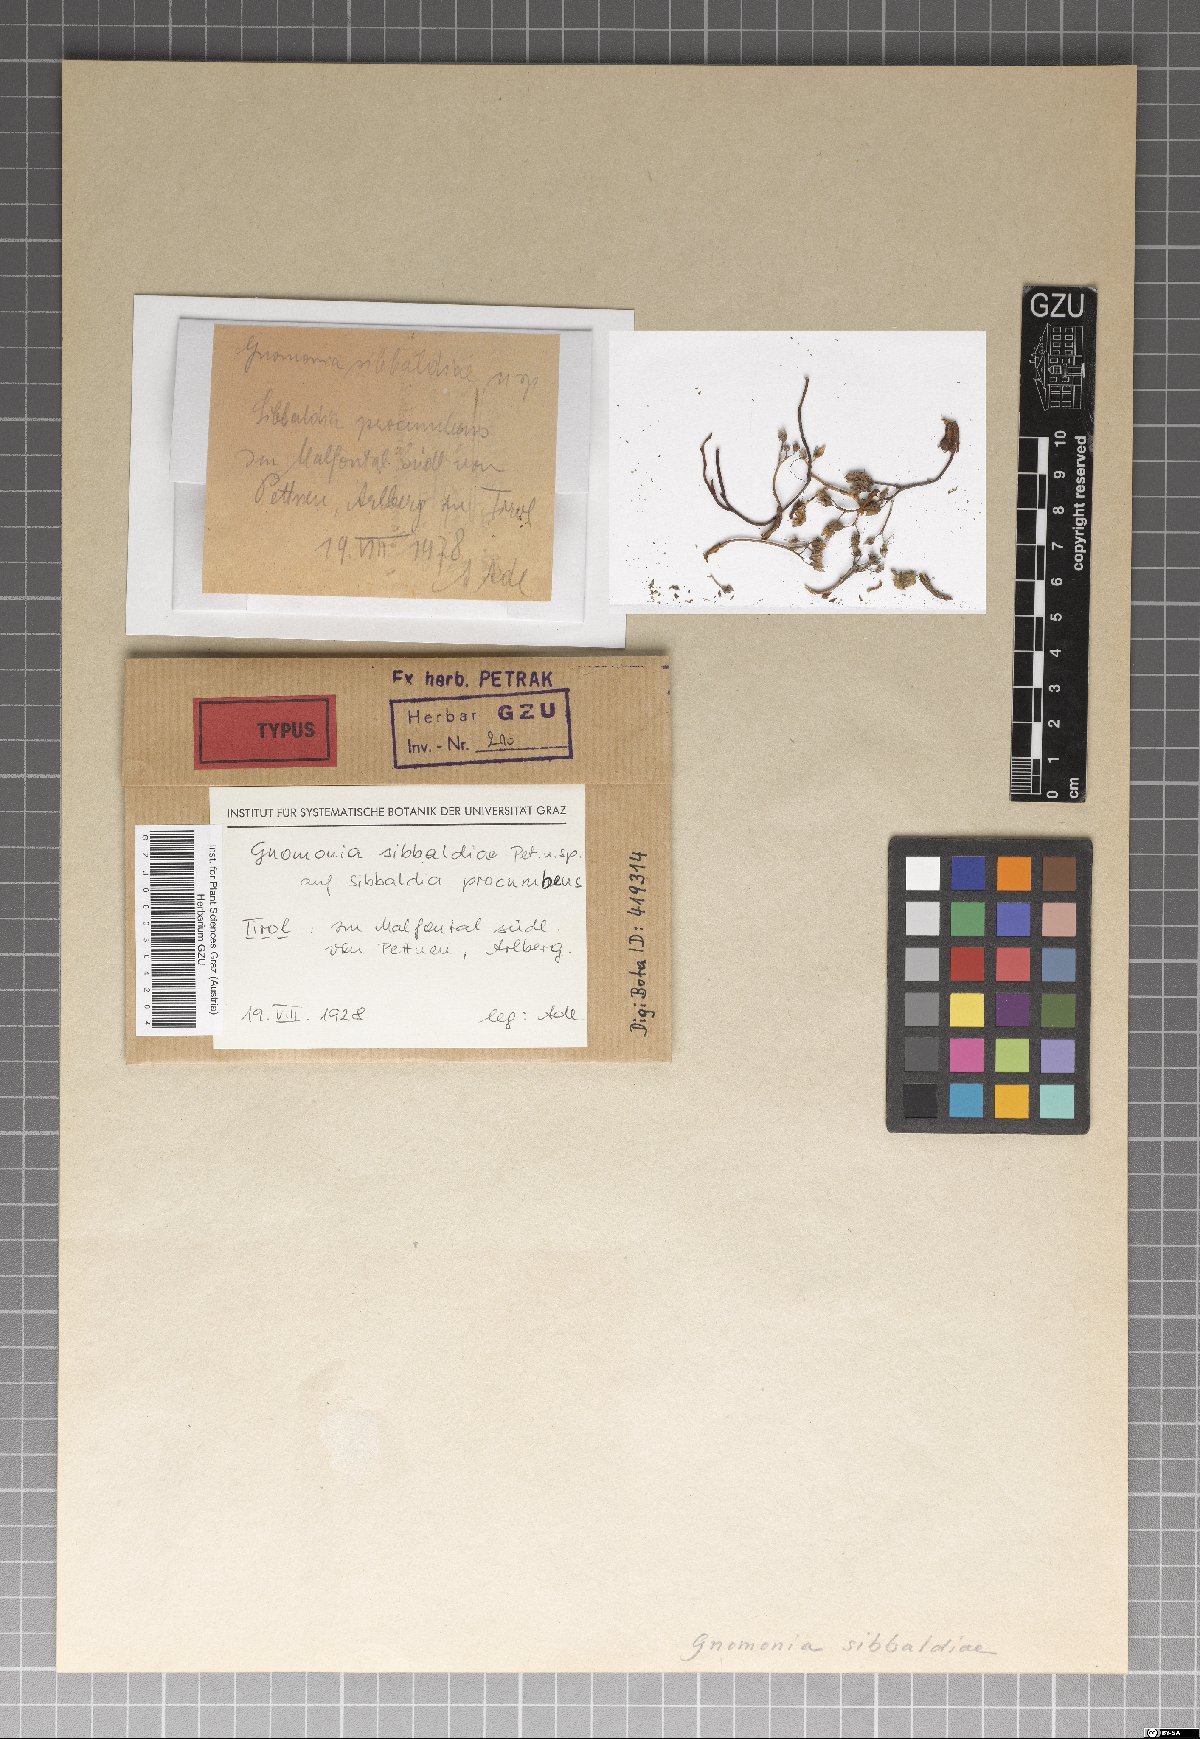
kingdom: Fungi
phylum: Ascomycota
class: Sordariomycetes
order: Diaporthales
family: Gnomoniaceae
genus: Gnomonia
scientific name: Gnomonia sibbaldiae
